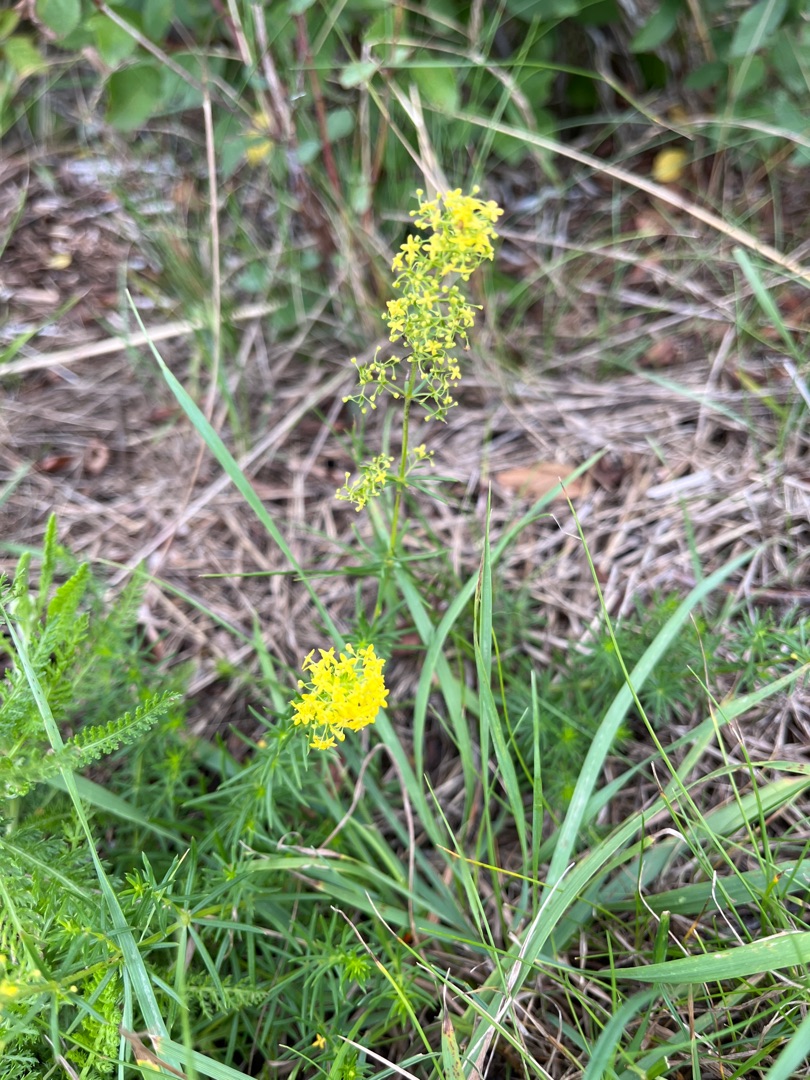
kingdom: Plantae
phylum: Tracheophyta
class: Magnoliopsida
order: Gentianales
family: Rubiaceae
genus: Galium
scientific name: Galium verum
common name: Gul snerre
